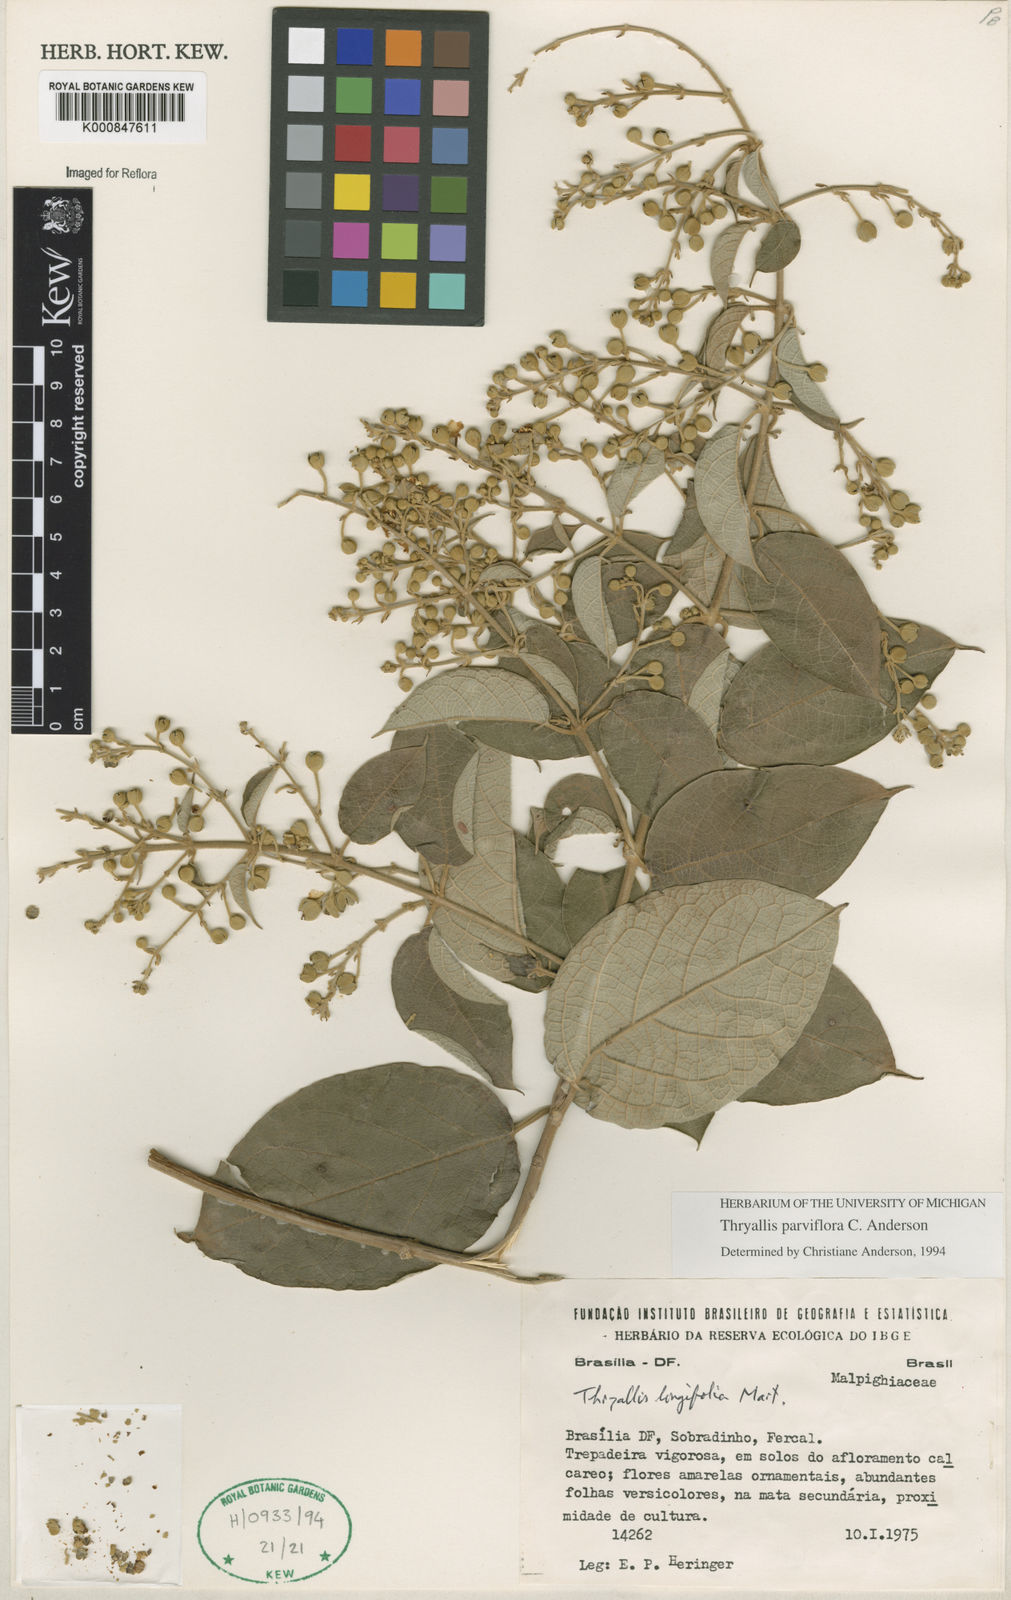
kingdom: Plantae
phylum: Tracheophyta
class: Magnoliopsida
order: Malpighiales
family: Malpighiaceae
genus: Thryallis
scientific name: Thryallis parviflora
